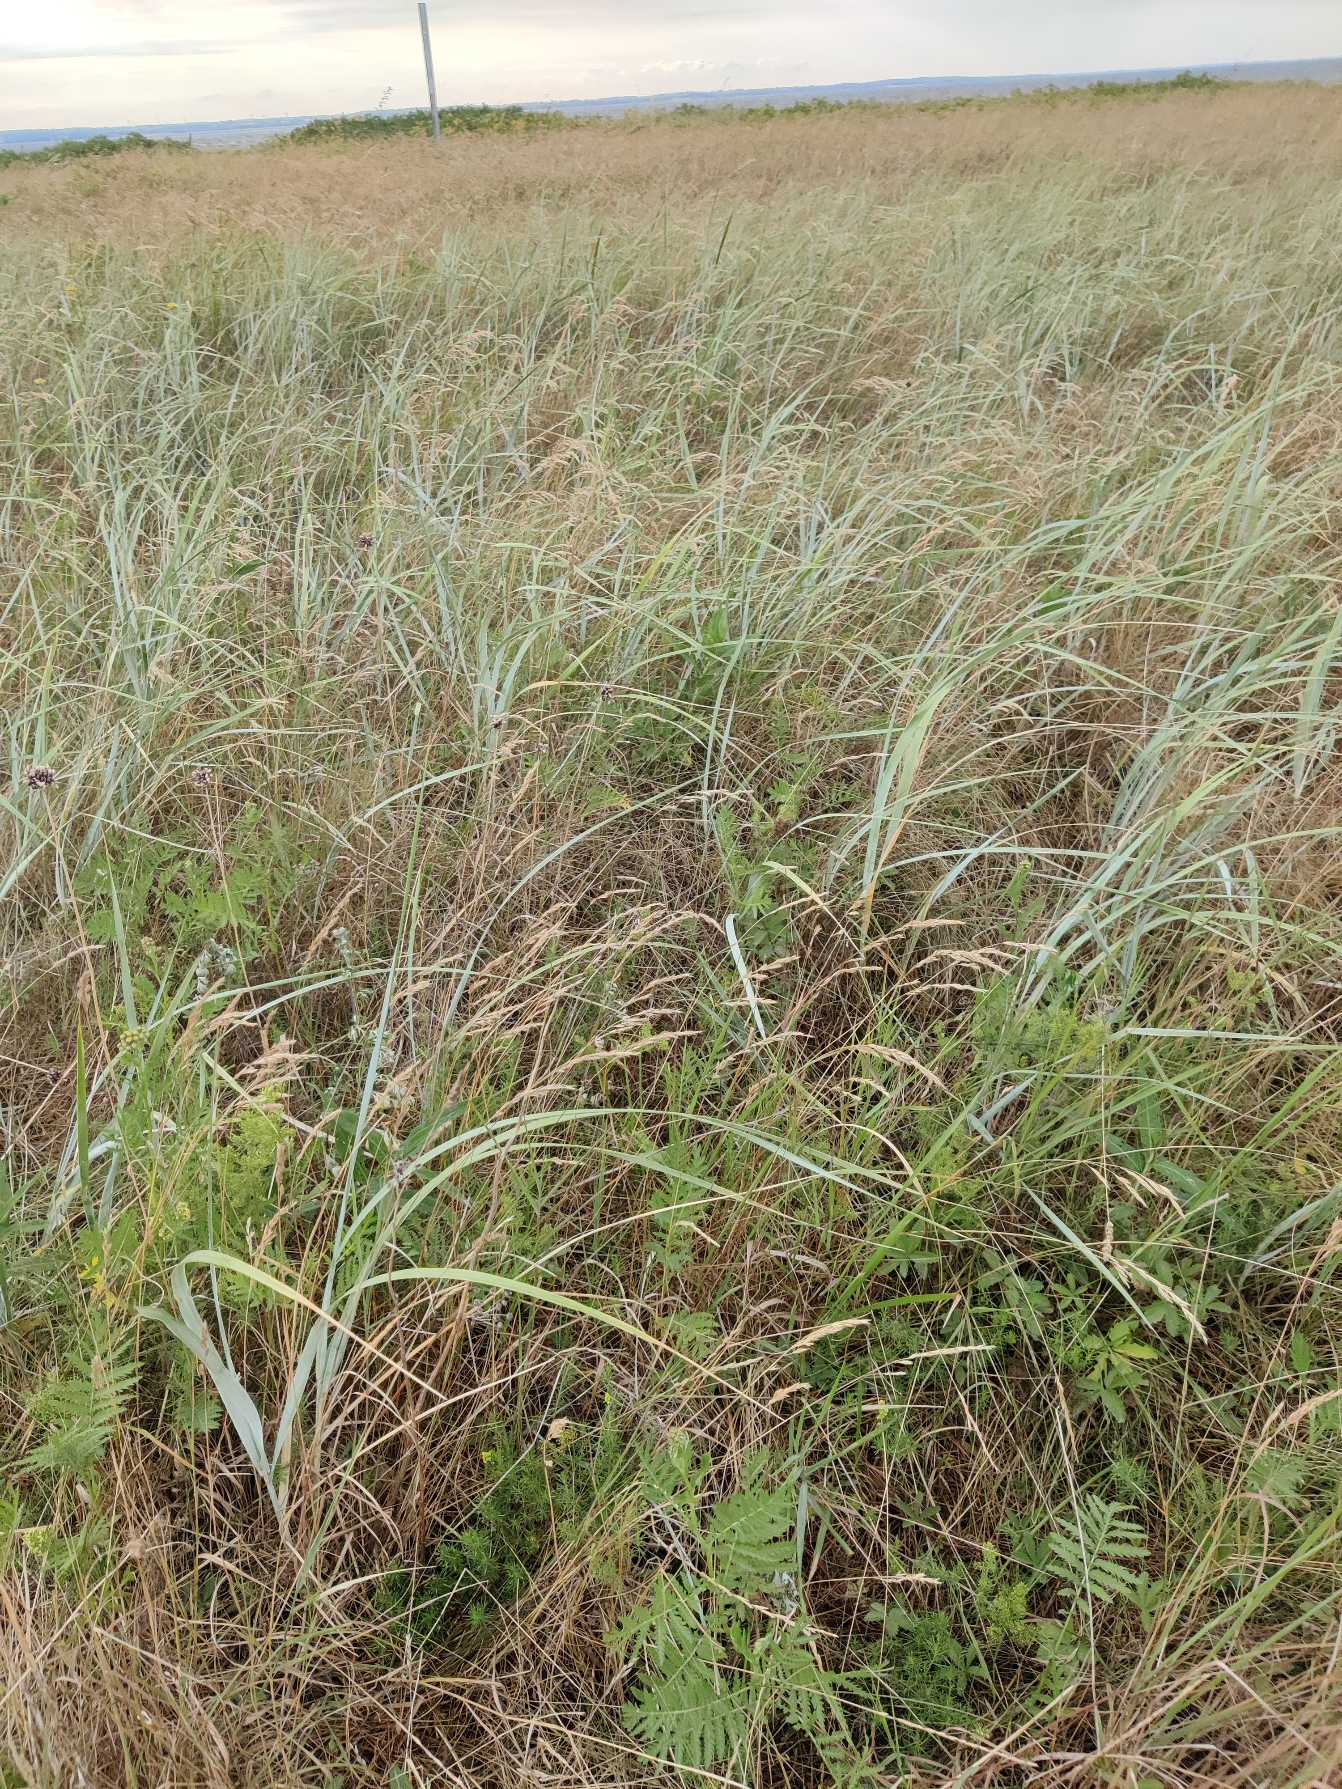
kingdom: Plantae
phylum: Tracheophyta
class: Liliopsida
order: Poales
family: Poaceae
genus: Leymus
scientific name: Leymus arenarius
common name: Marehalm
